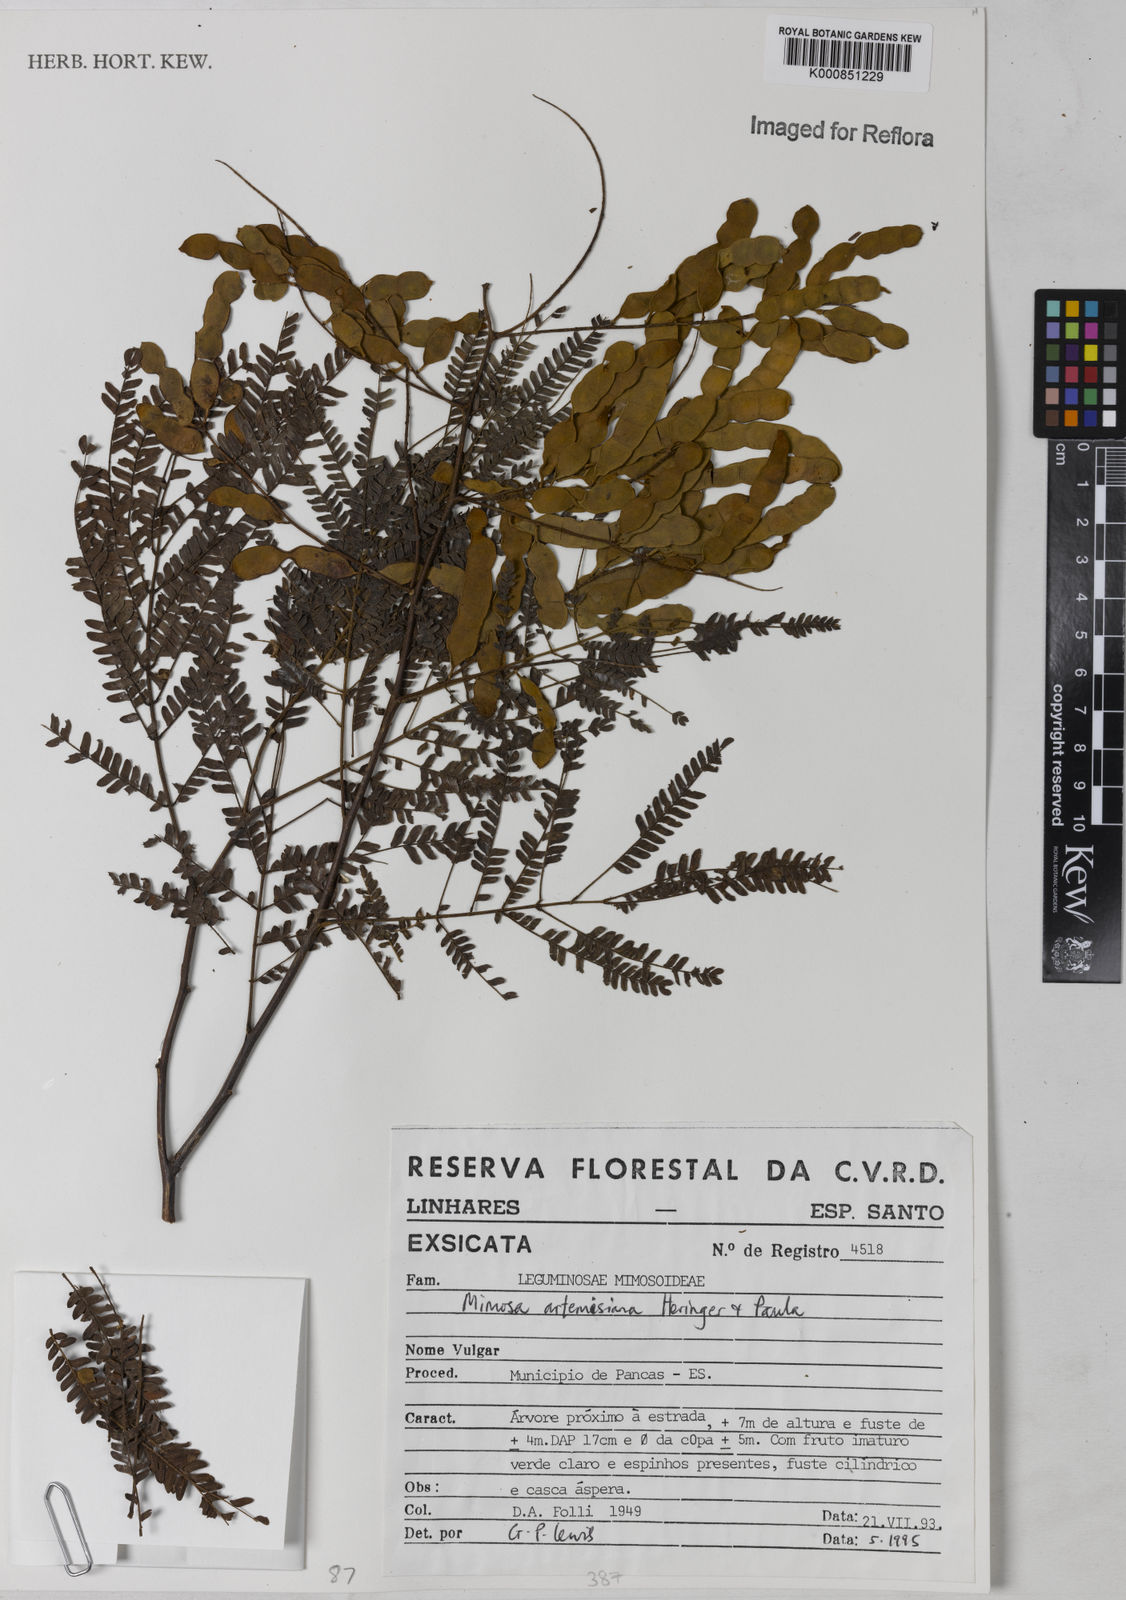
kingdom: Plantae
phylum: Tracheophyta
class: Magnoliopsida
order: Fabales
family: Fabaceae
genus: Mimosa
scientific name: Mimosa schomburgkii
